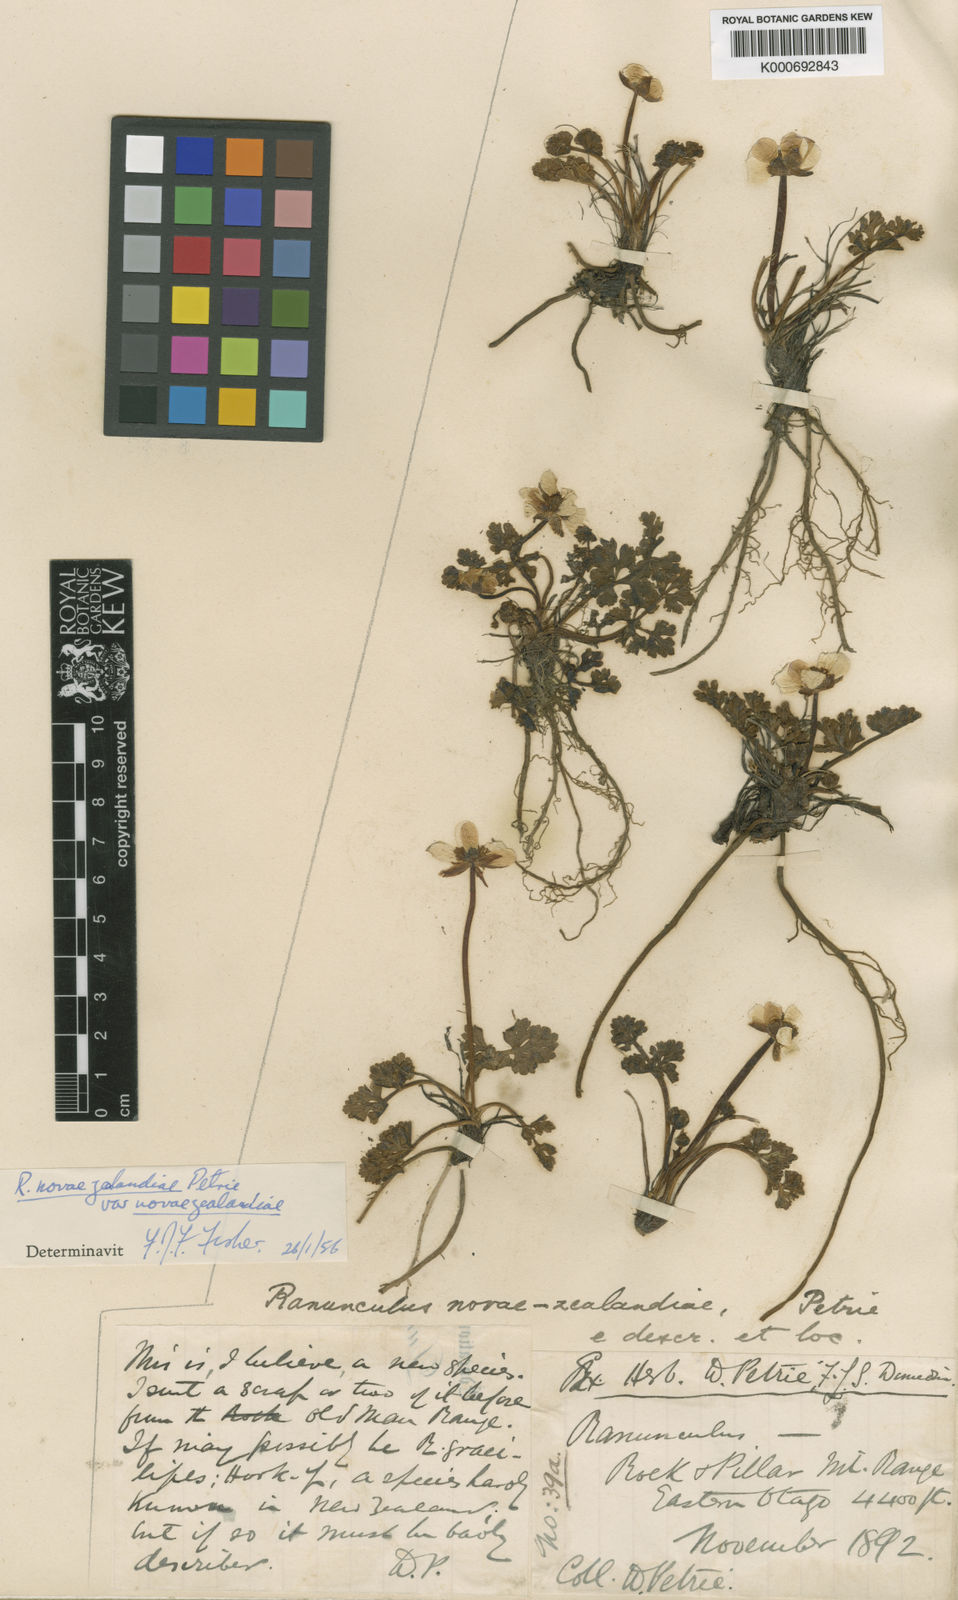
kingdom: Plantae
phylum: Tracheophyta
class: Magnoliopsida
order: Ranunculales
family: Ranunculaceae
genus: Ranunculus
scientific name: Ranunculus enysii
